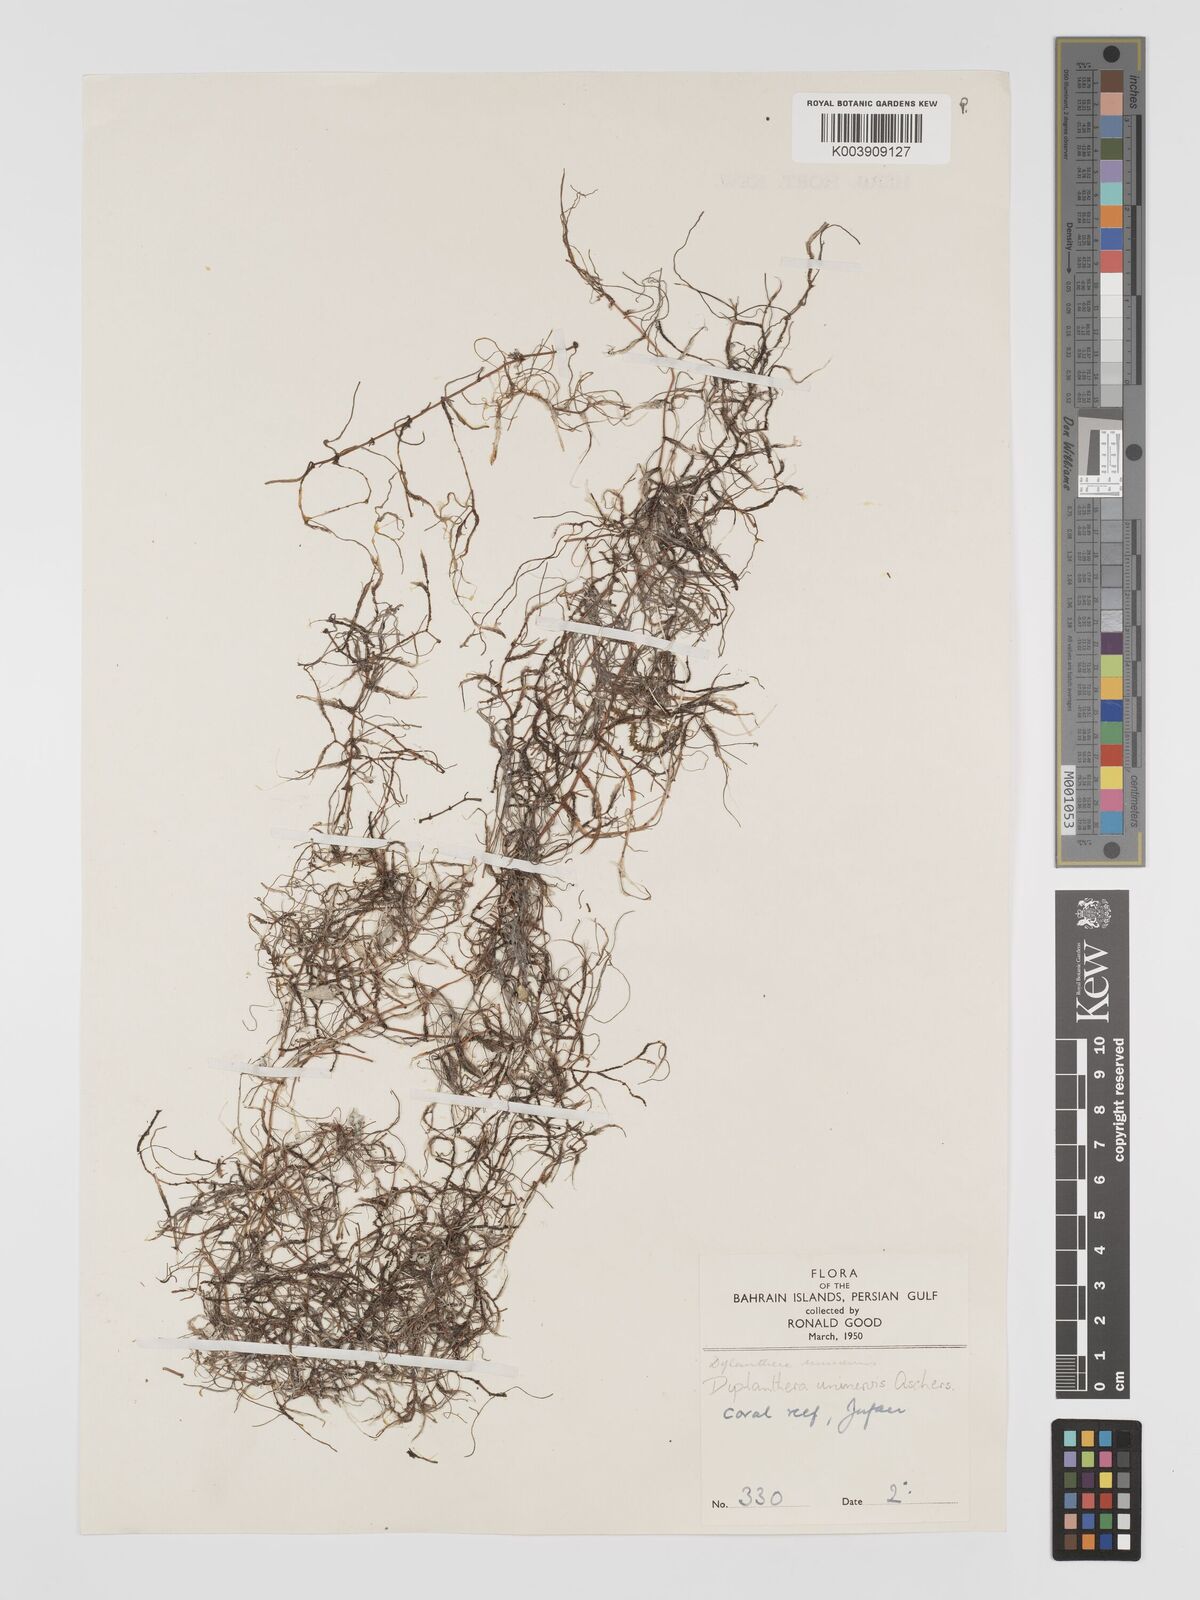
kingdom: Plantae
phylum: Tracheophyta
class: Liliopsida
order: Alismatales
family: Cymodoceaceae
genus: Halodule
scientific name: Halodule uninervis
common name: Narrowleaf seagrass
